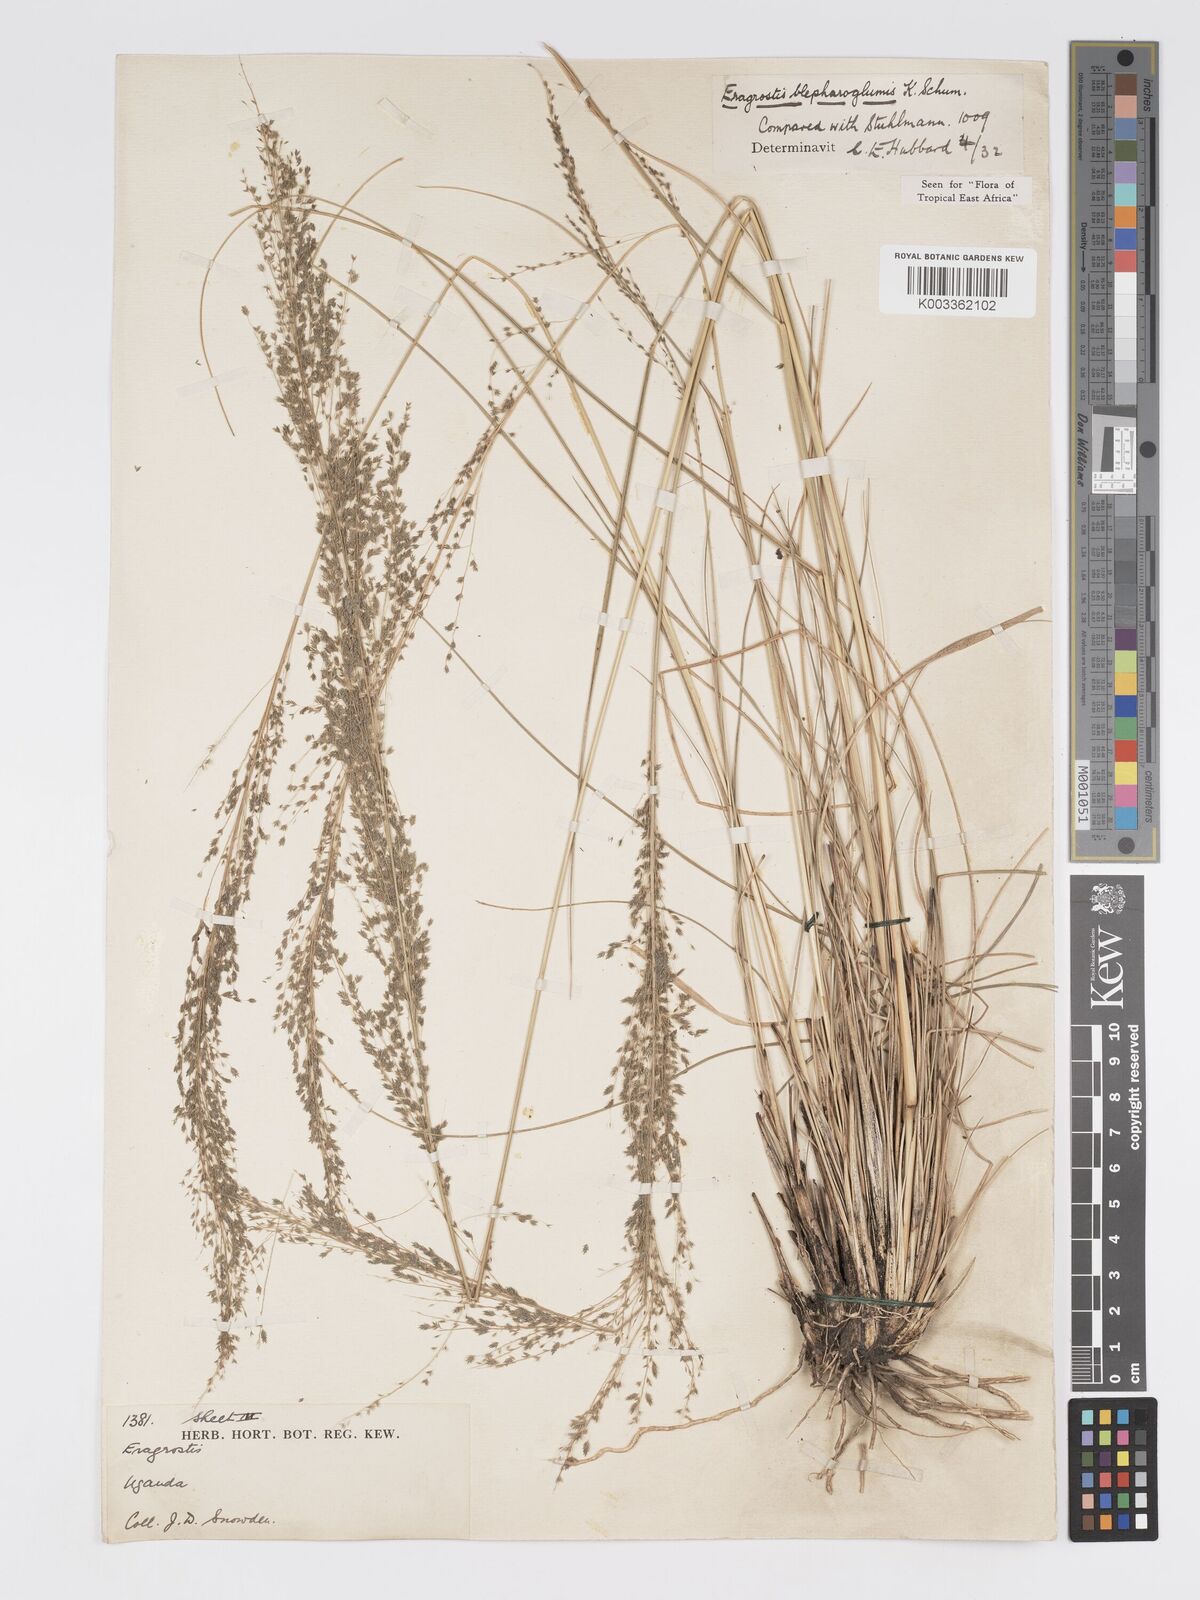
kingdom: Plantae
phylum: Tracheophyta
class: Liliopsida
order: Poales
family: Poaceae
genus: Eragrostis
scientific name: Eragrostis olivacea
